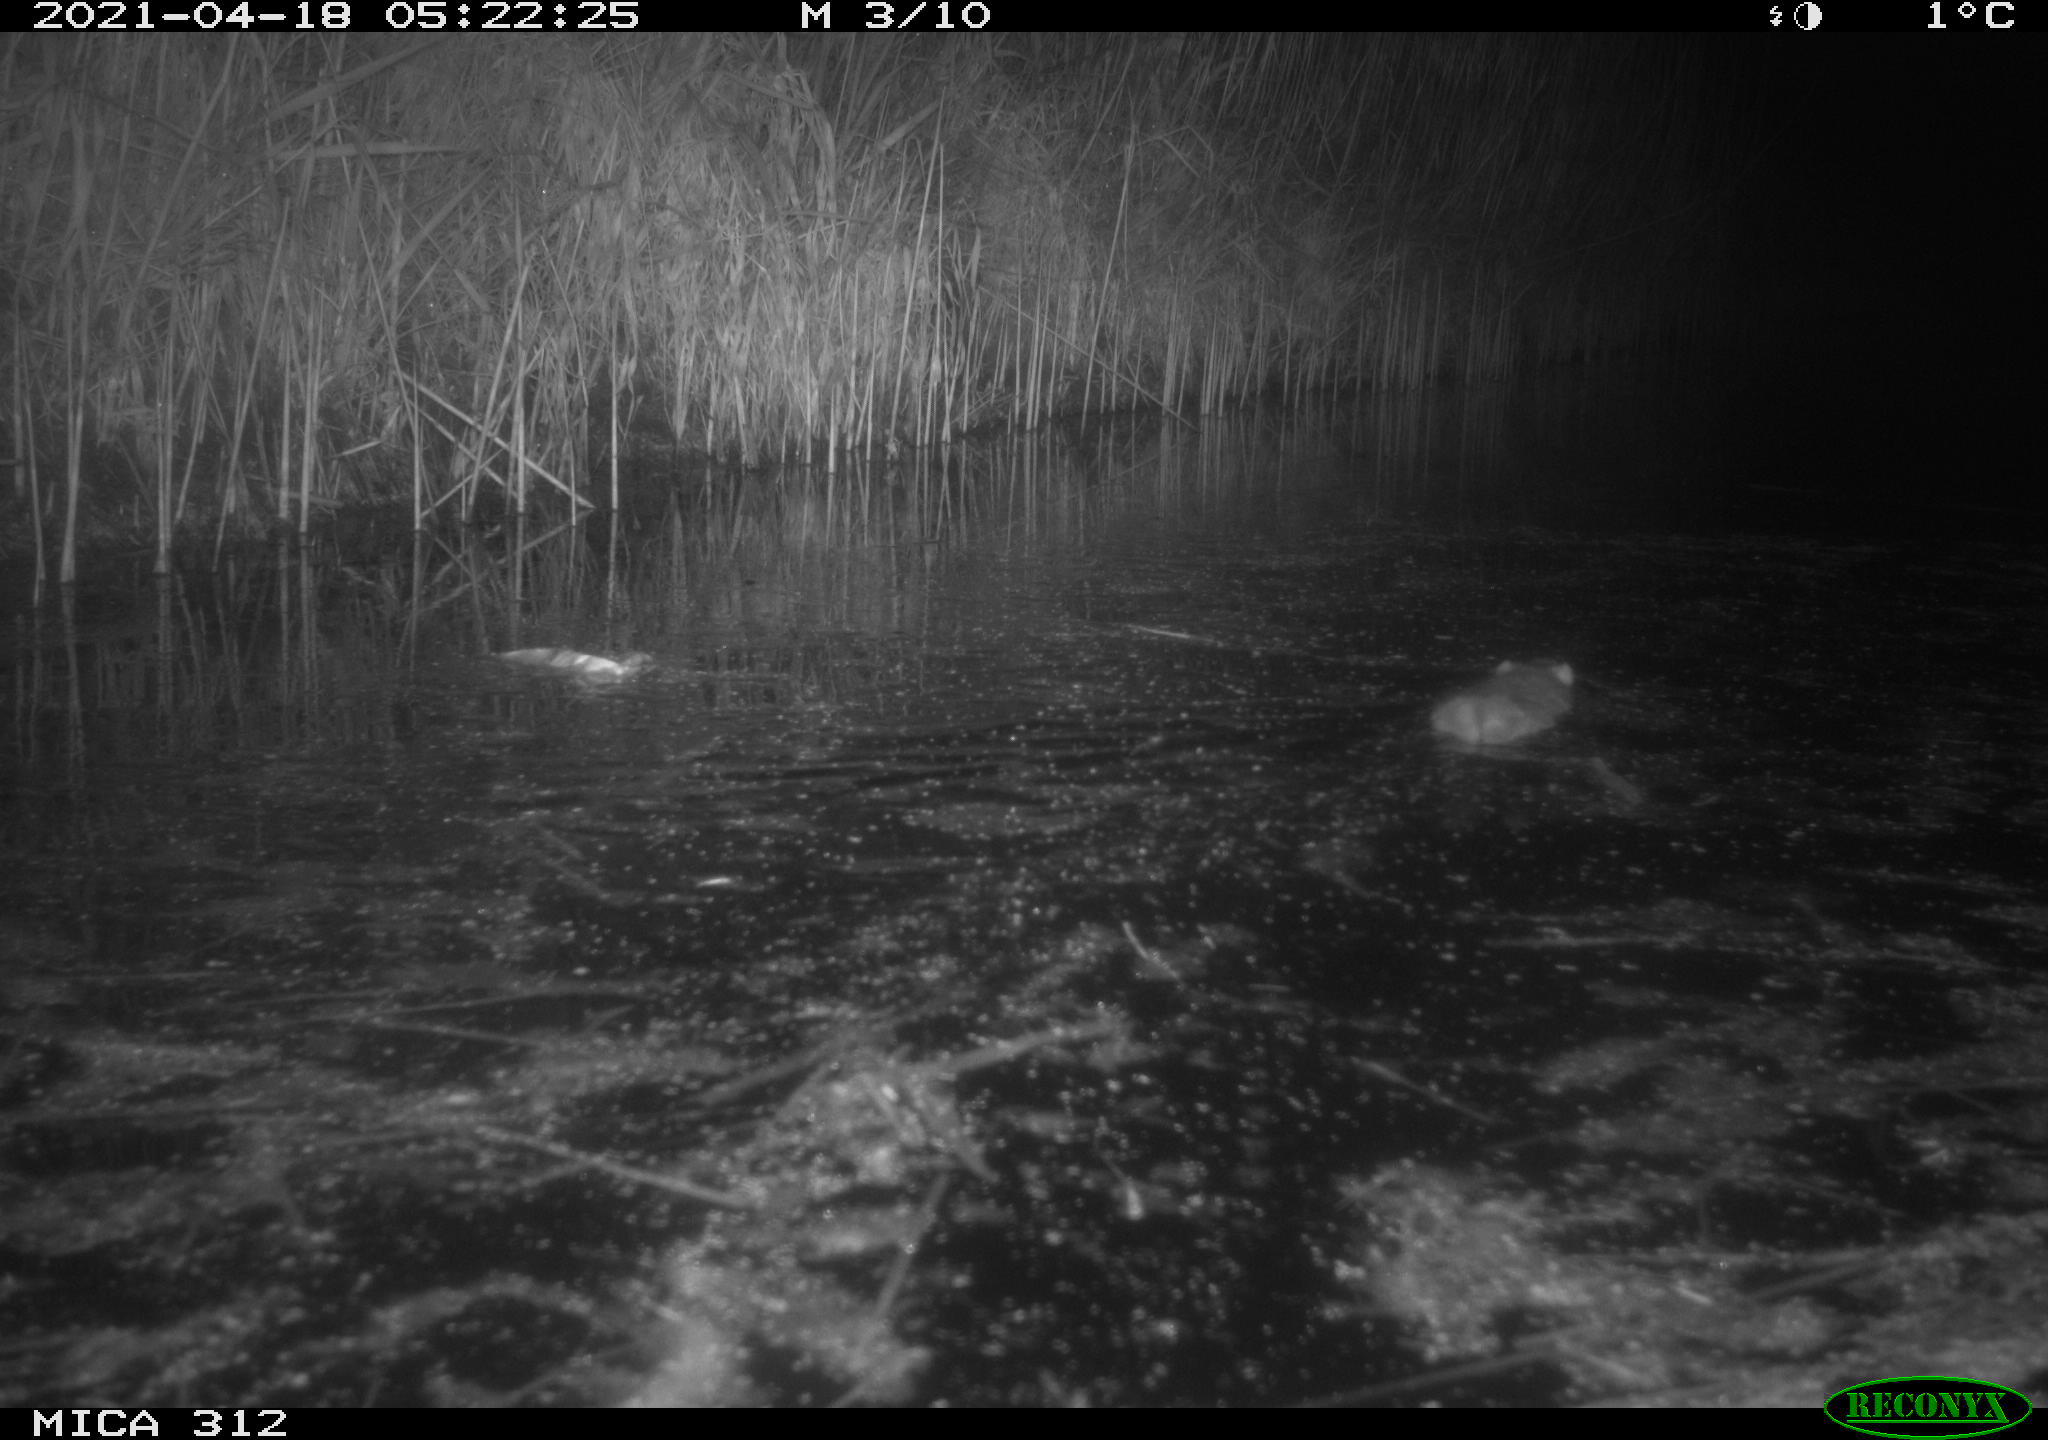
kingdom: Animalia
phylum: Chordata
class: Mammalia
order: Rodentia
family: Muridae
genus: Rattus
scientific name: Rattus norvegicus
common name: Brown rat
